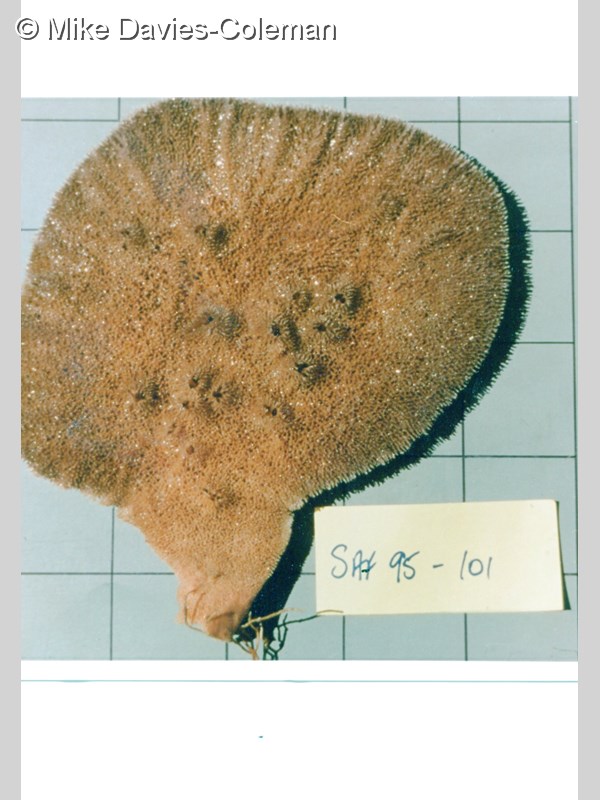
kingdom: Animalia
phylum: Porifera
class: Demospongiae
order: Poecilosclerida
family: Isodictyidae
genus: Isodictya
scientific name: Isodictya frondosa
